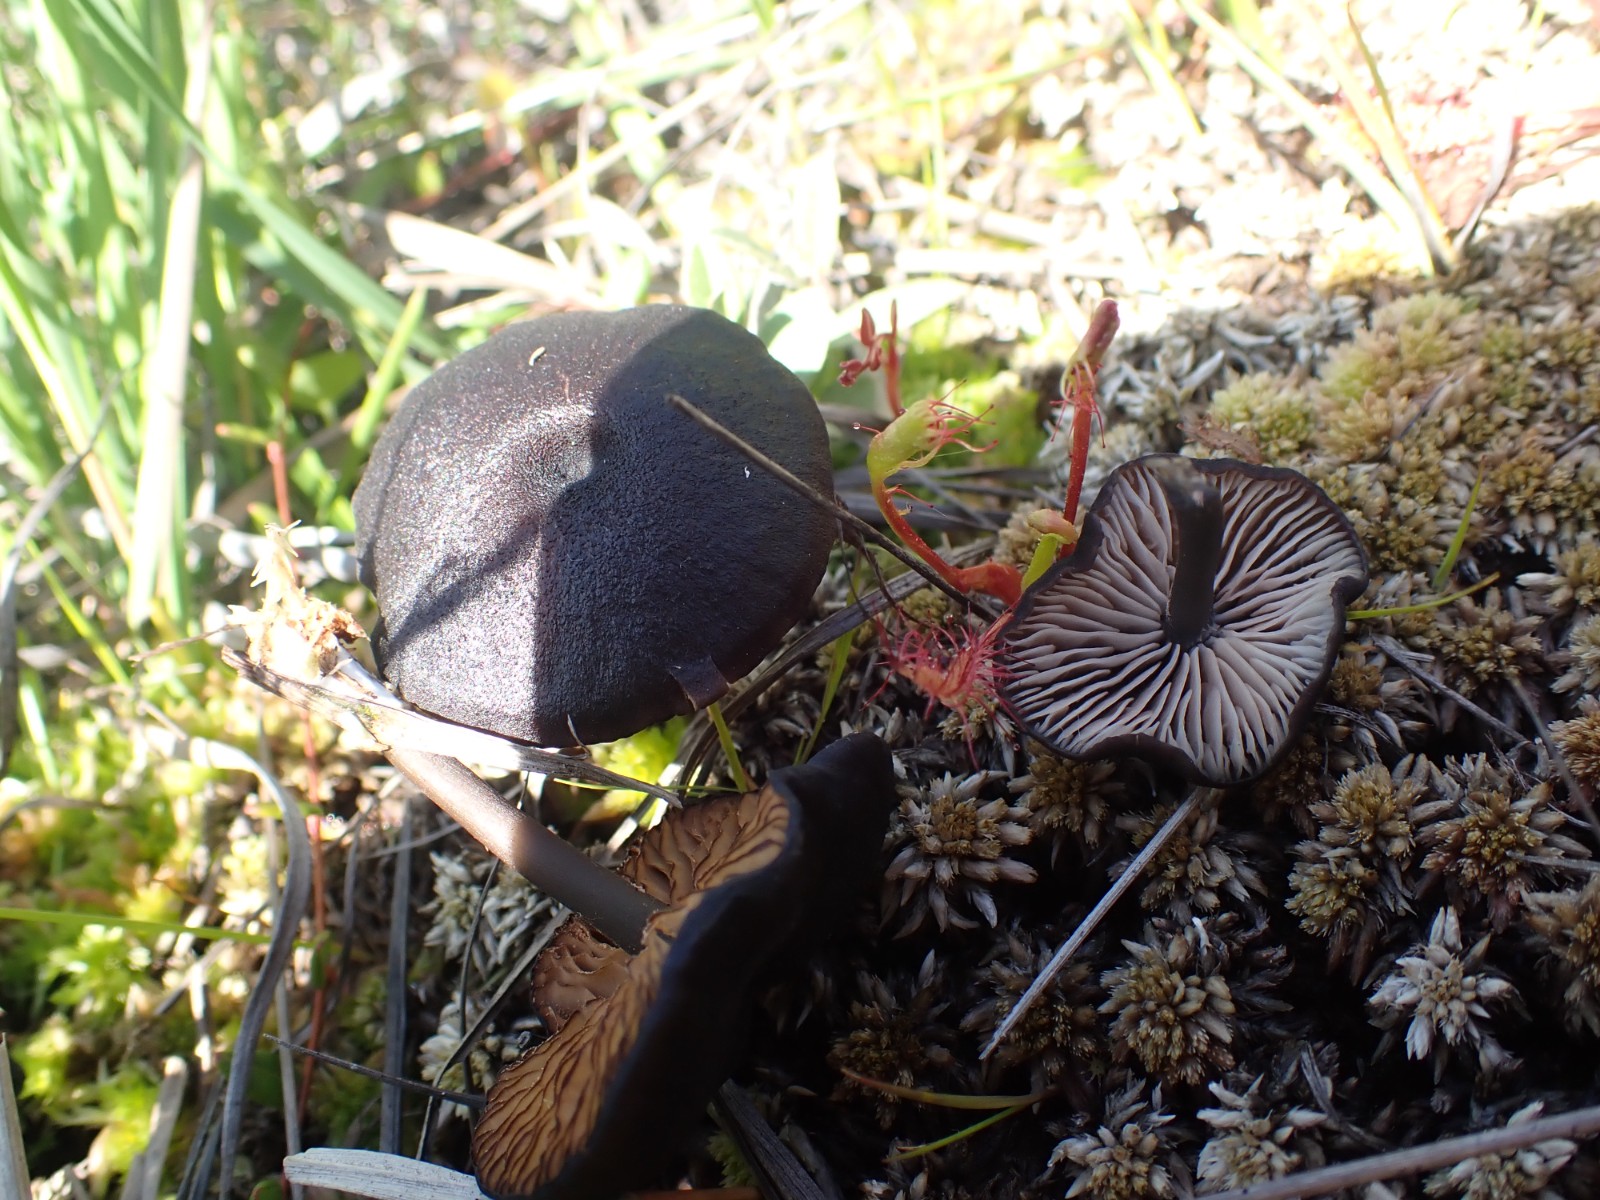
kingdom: Fungi
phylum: Basidiomycota
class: Agaricomycetes
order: Agaricales
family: Entolomataceae
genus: Entoloma
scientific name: Entoloma
